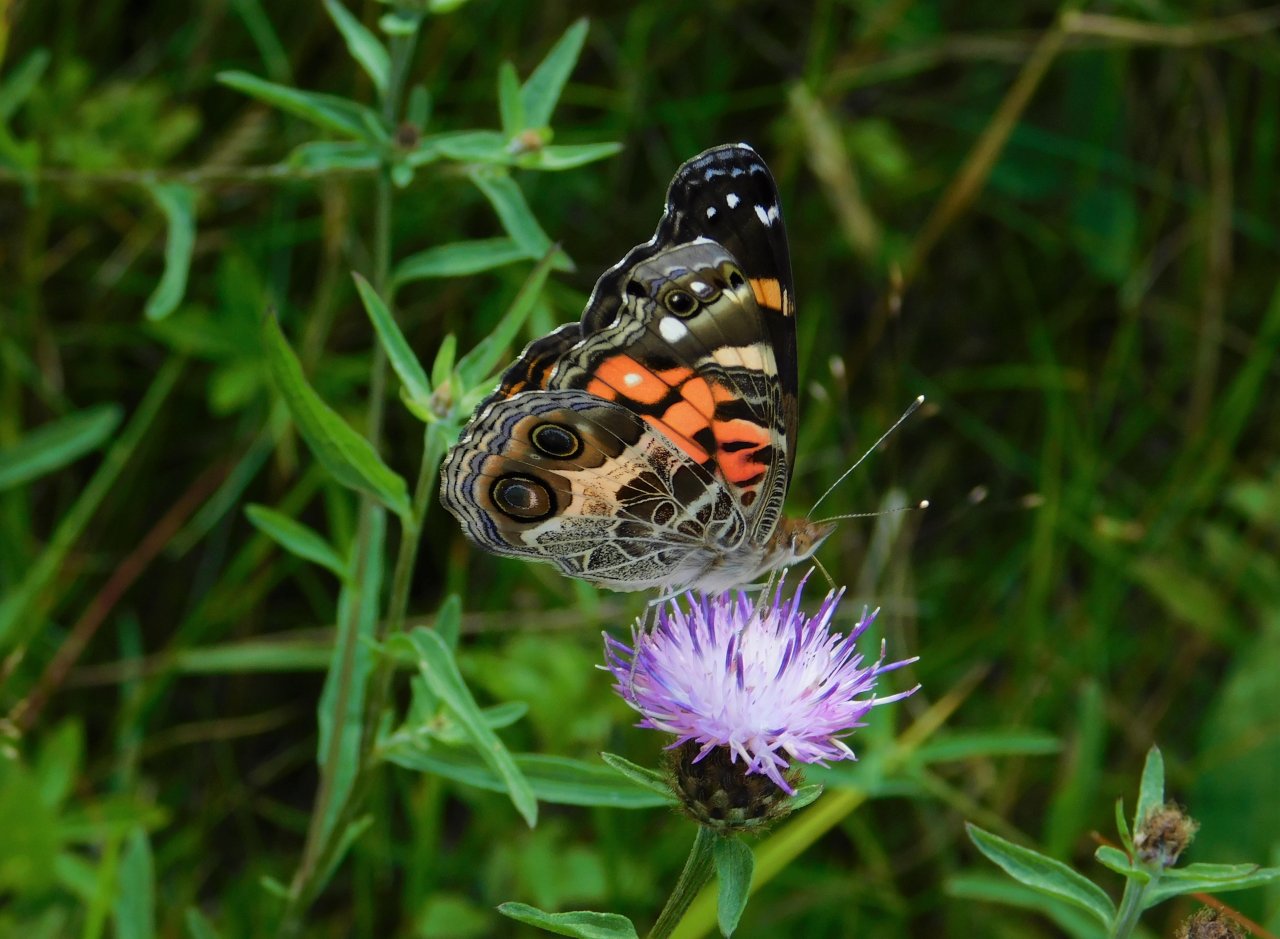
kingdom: Animalia
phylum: Arthropoda
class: Insecta
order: Lepidoptera
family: Nymphalidae
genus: Vanessa
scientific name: Vanessa virginiensis
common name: American Lady
